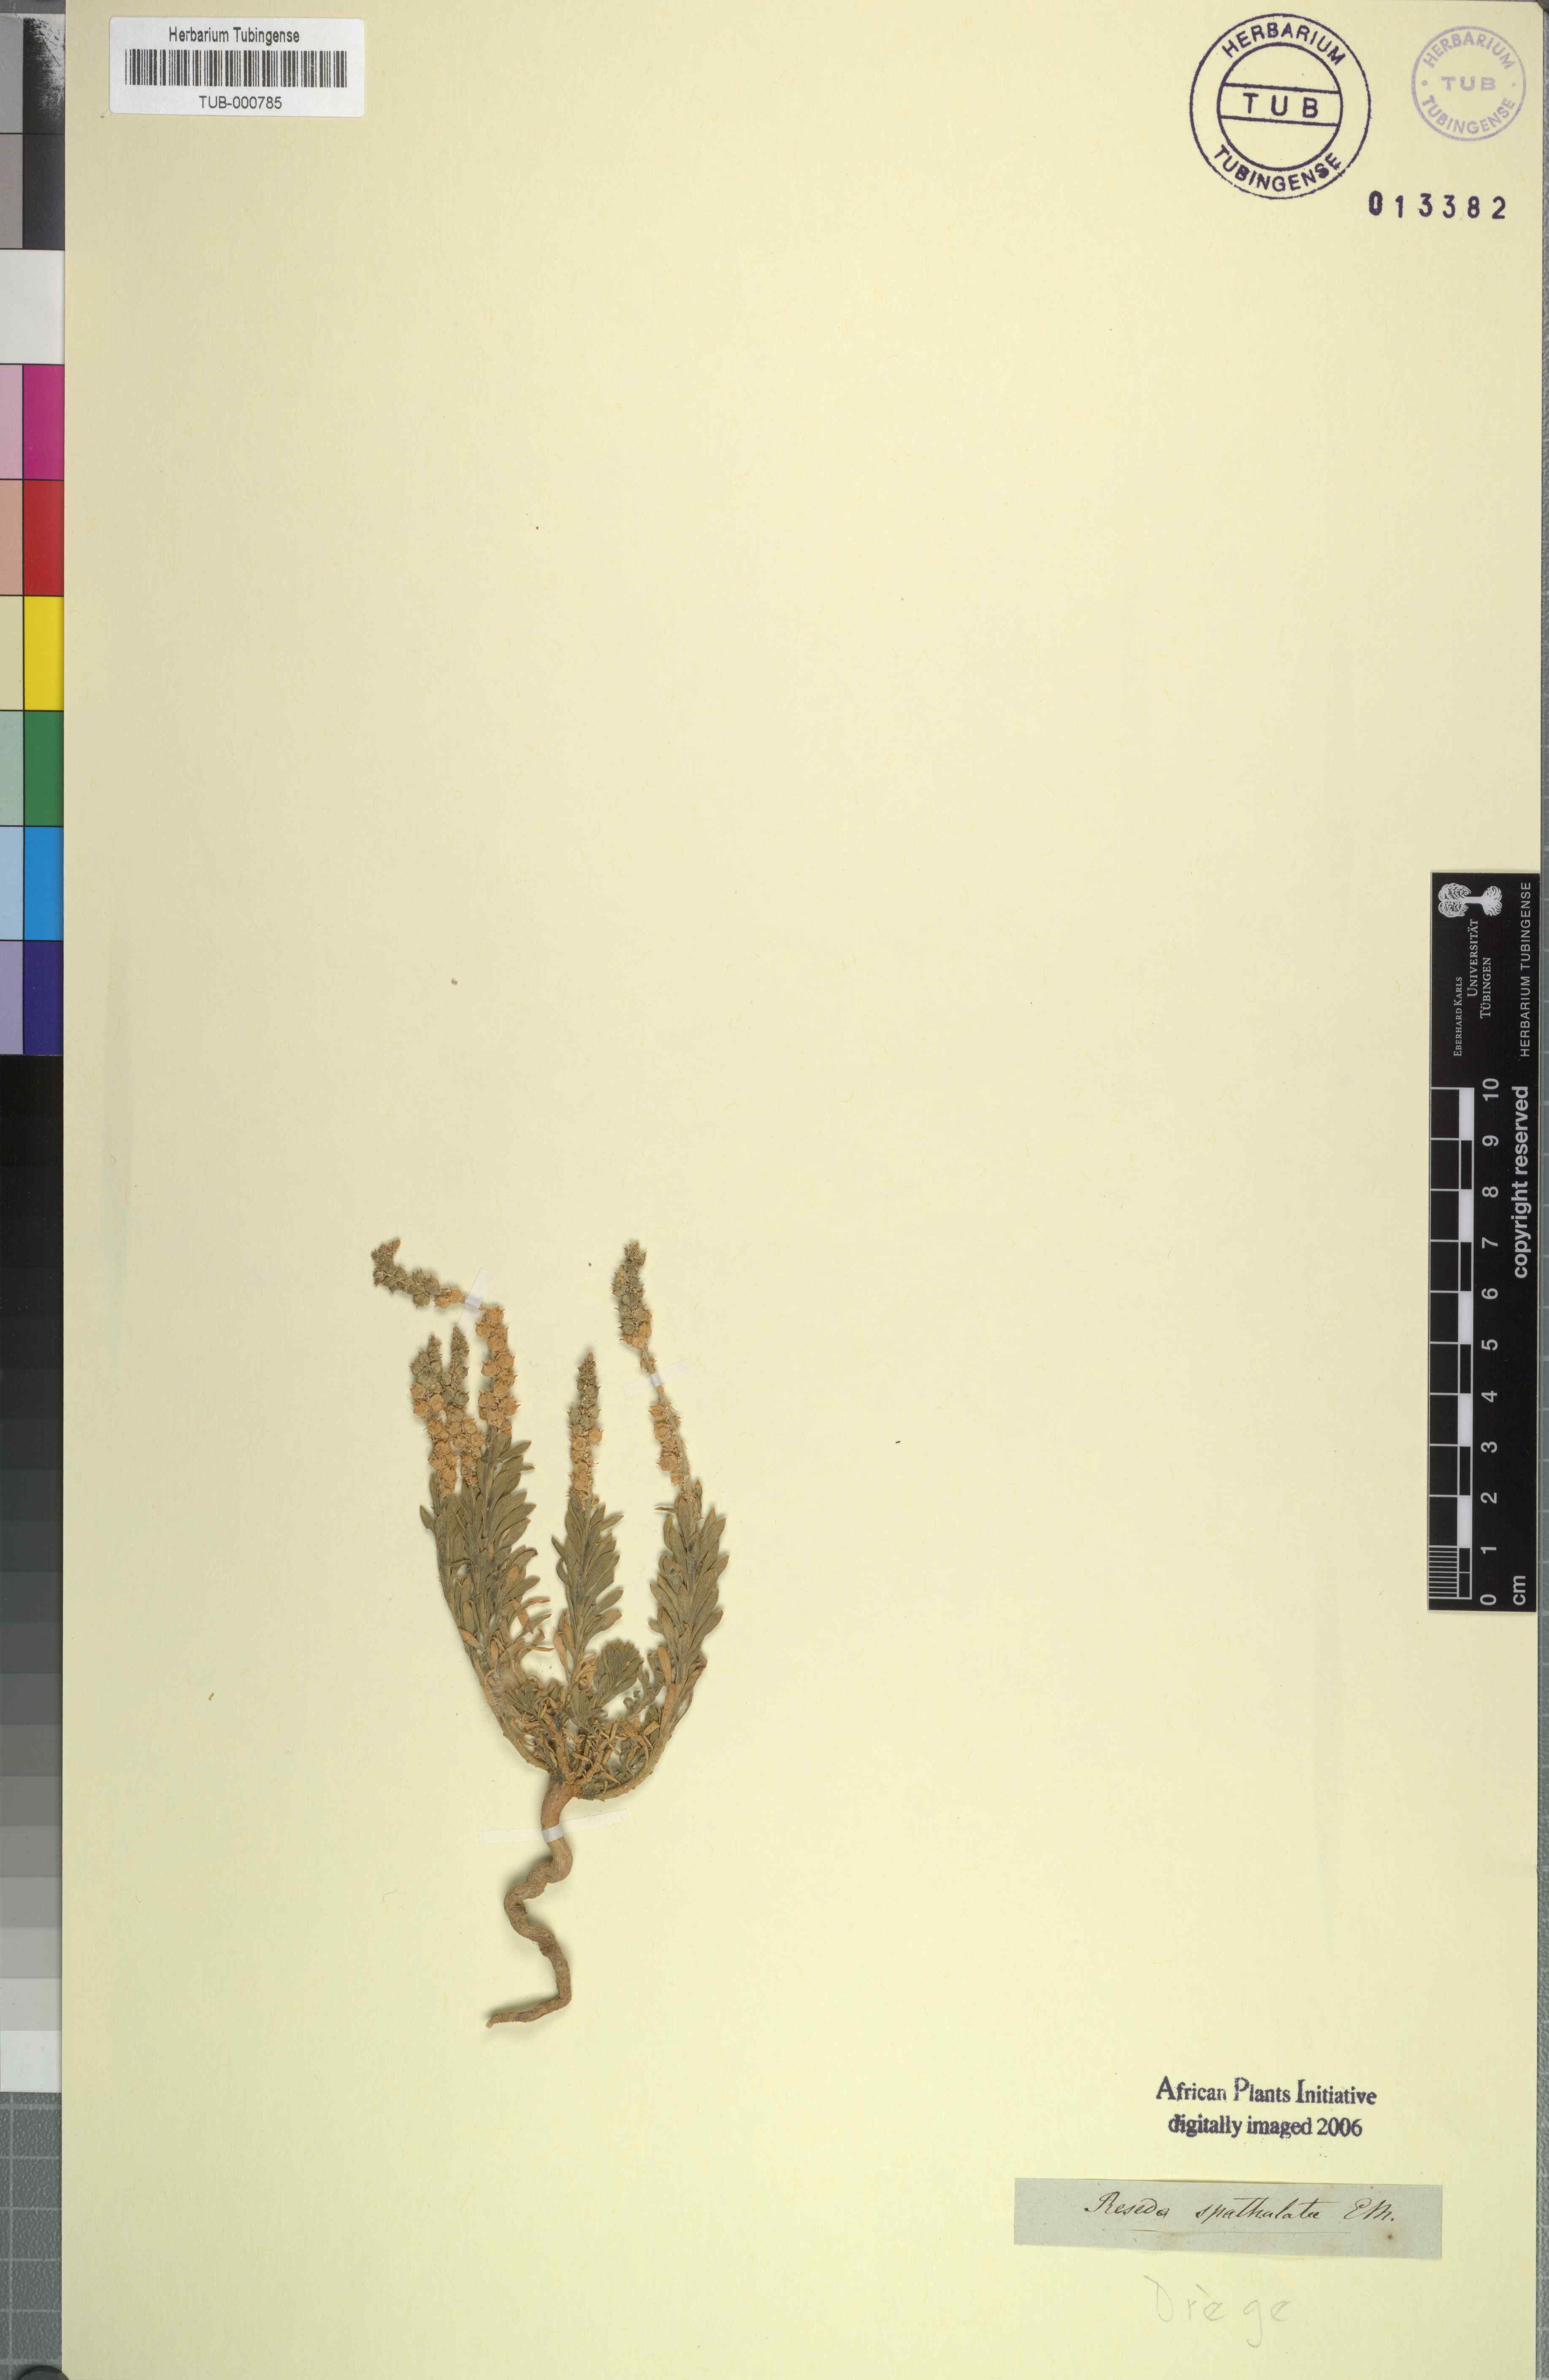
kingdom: Plantae
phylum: Tracheophyta
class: Magnoliopsida
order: Brassicales
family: Resedaceae
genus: Oligomeris
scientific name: Oligomeris dipetala
